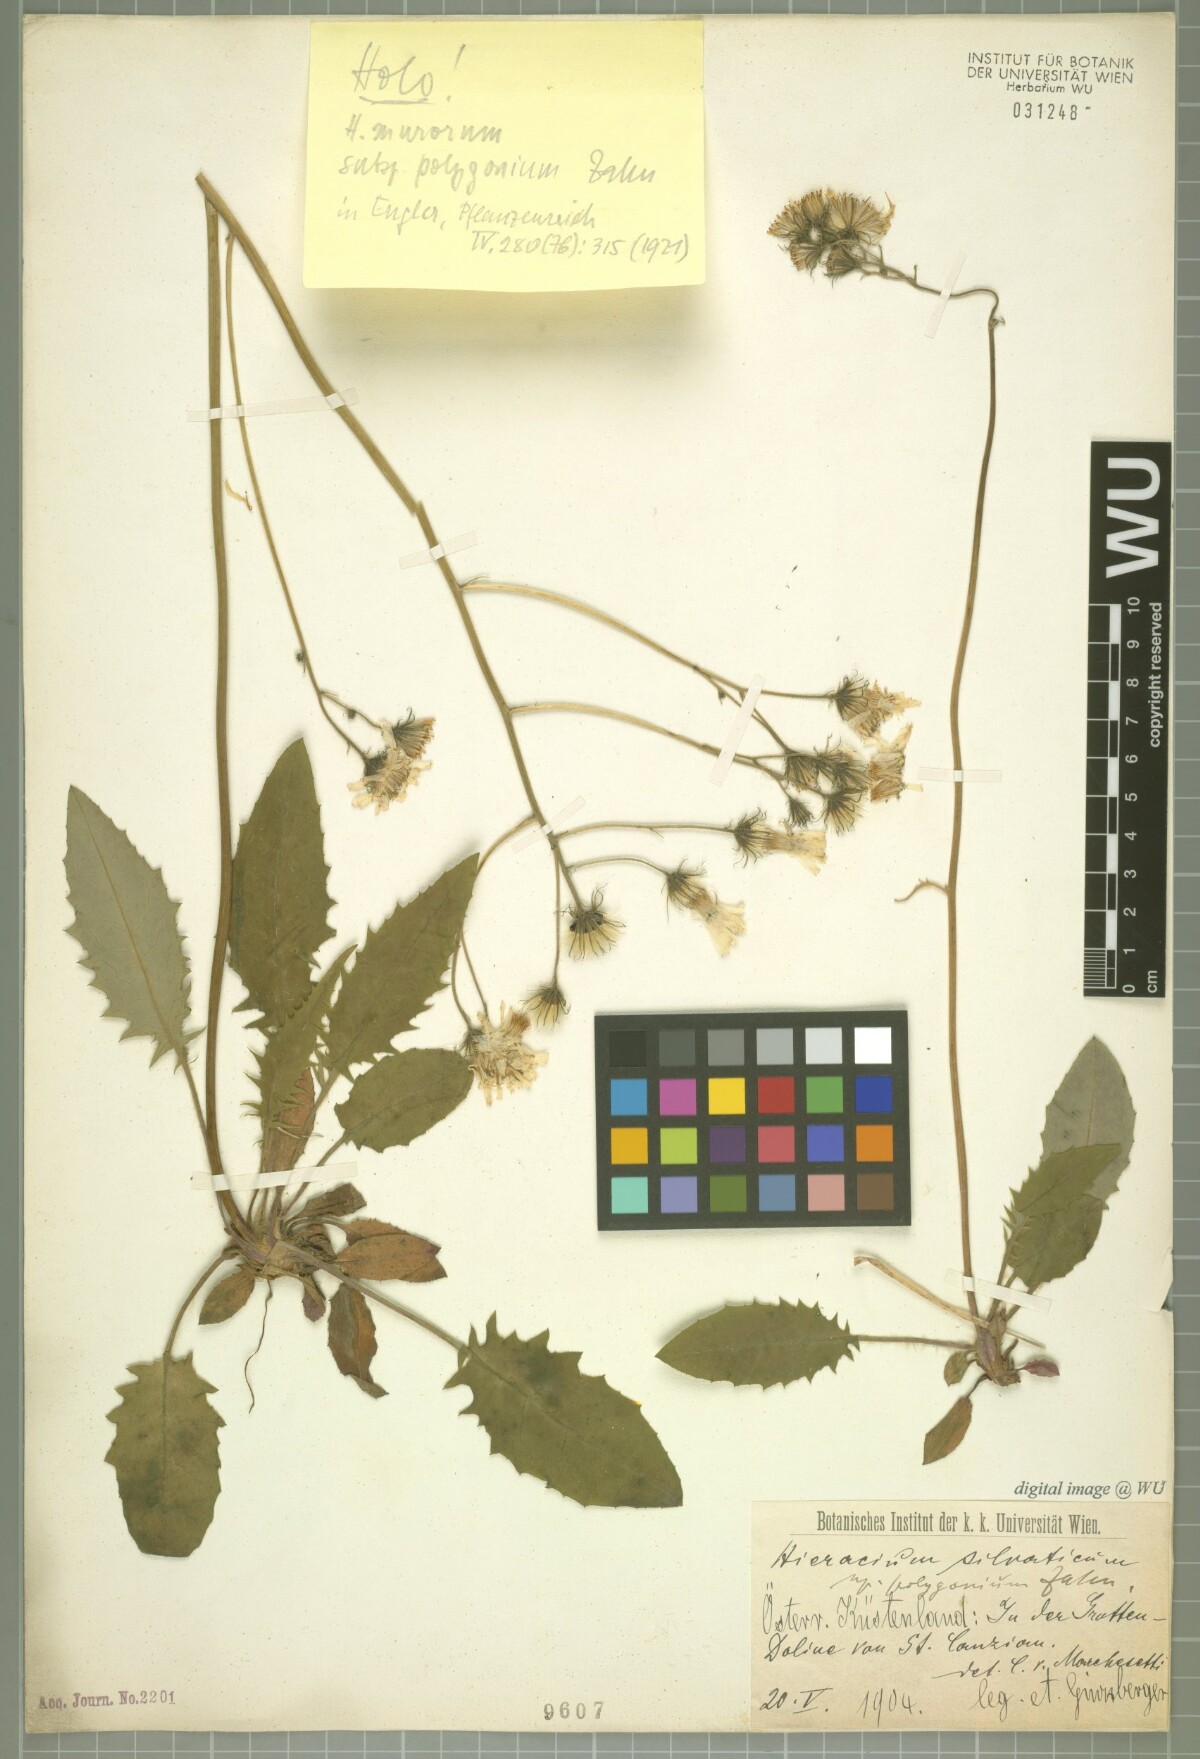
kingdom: Plantae
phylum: Tracheophyta
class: Magnoliopsida
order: Asterales
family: Asteraceae
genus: Hieracium
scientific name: Hieracium murorum
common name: Wall hawkweed
